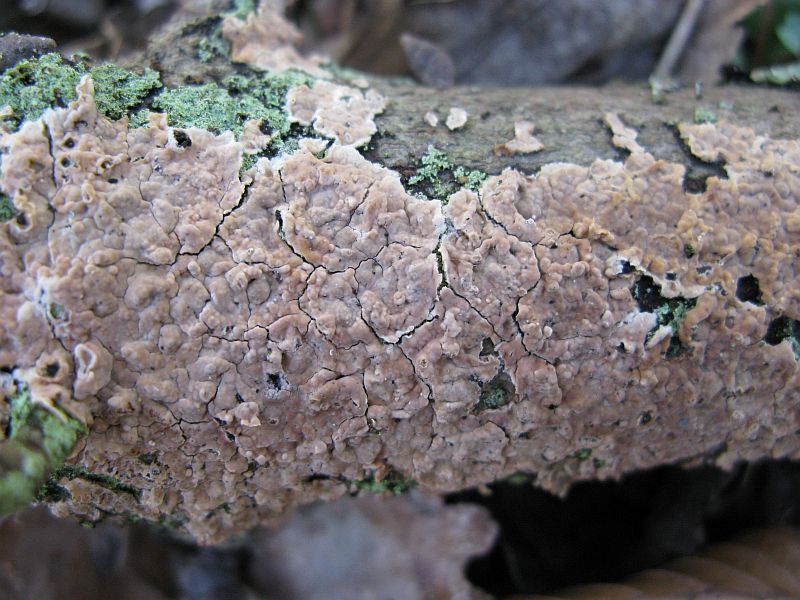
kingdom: Fungi
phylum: Basidiomycota
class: Agaricomycetes
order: Agaricales
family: Physalacriaceae
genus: Cylindrobasidium
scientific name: Cylindrobasidium evolvens
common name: sprækkehinde
